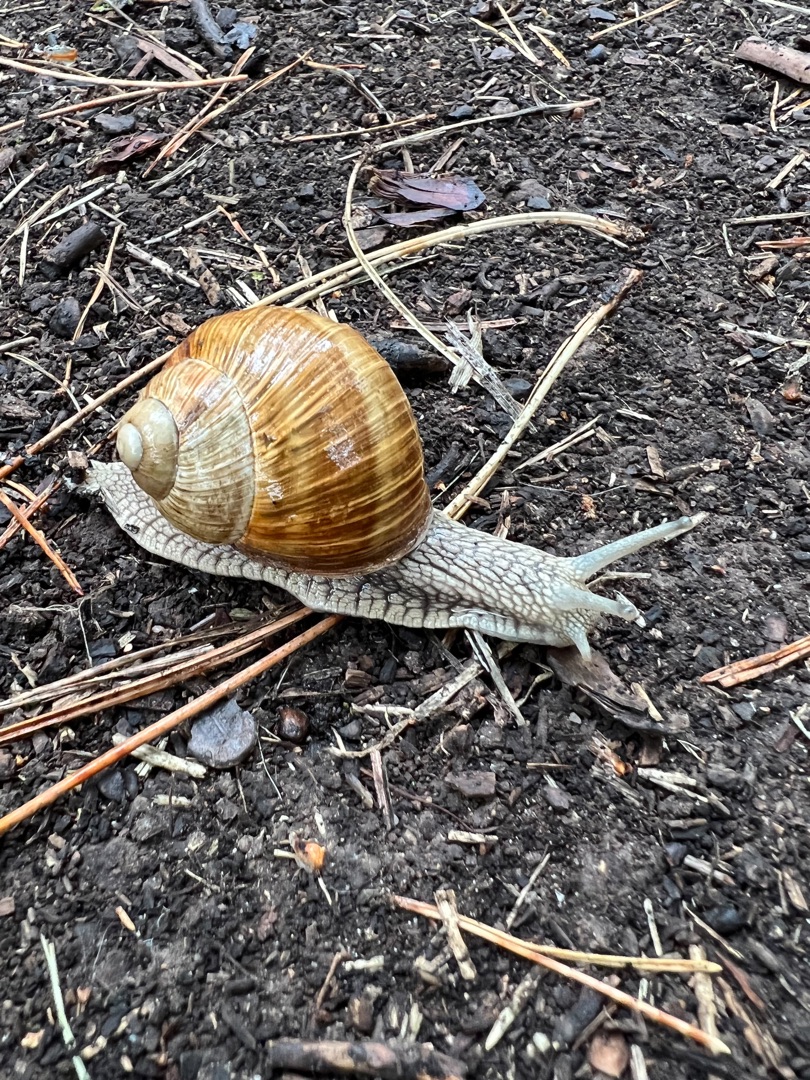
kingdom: Animalia
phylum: Mollusca
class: Gastropoda
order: Stylommatophora
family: Helicidae
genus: Helix
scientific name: Helix pomatia
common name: Vinbjergsnegl
